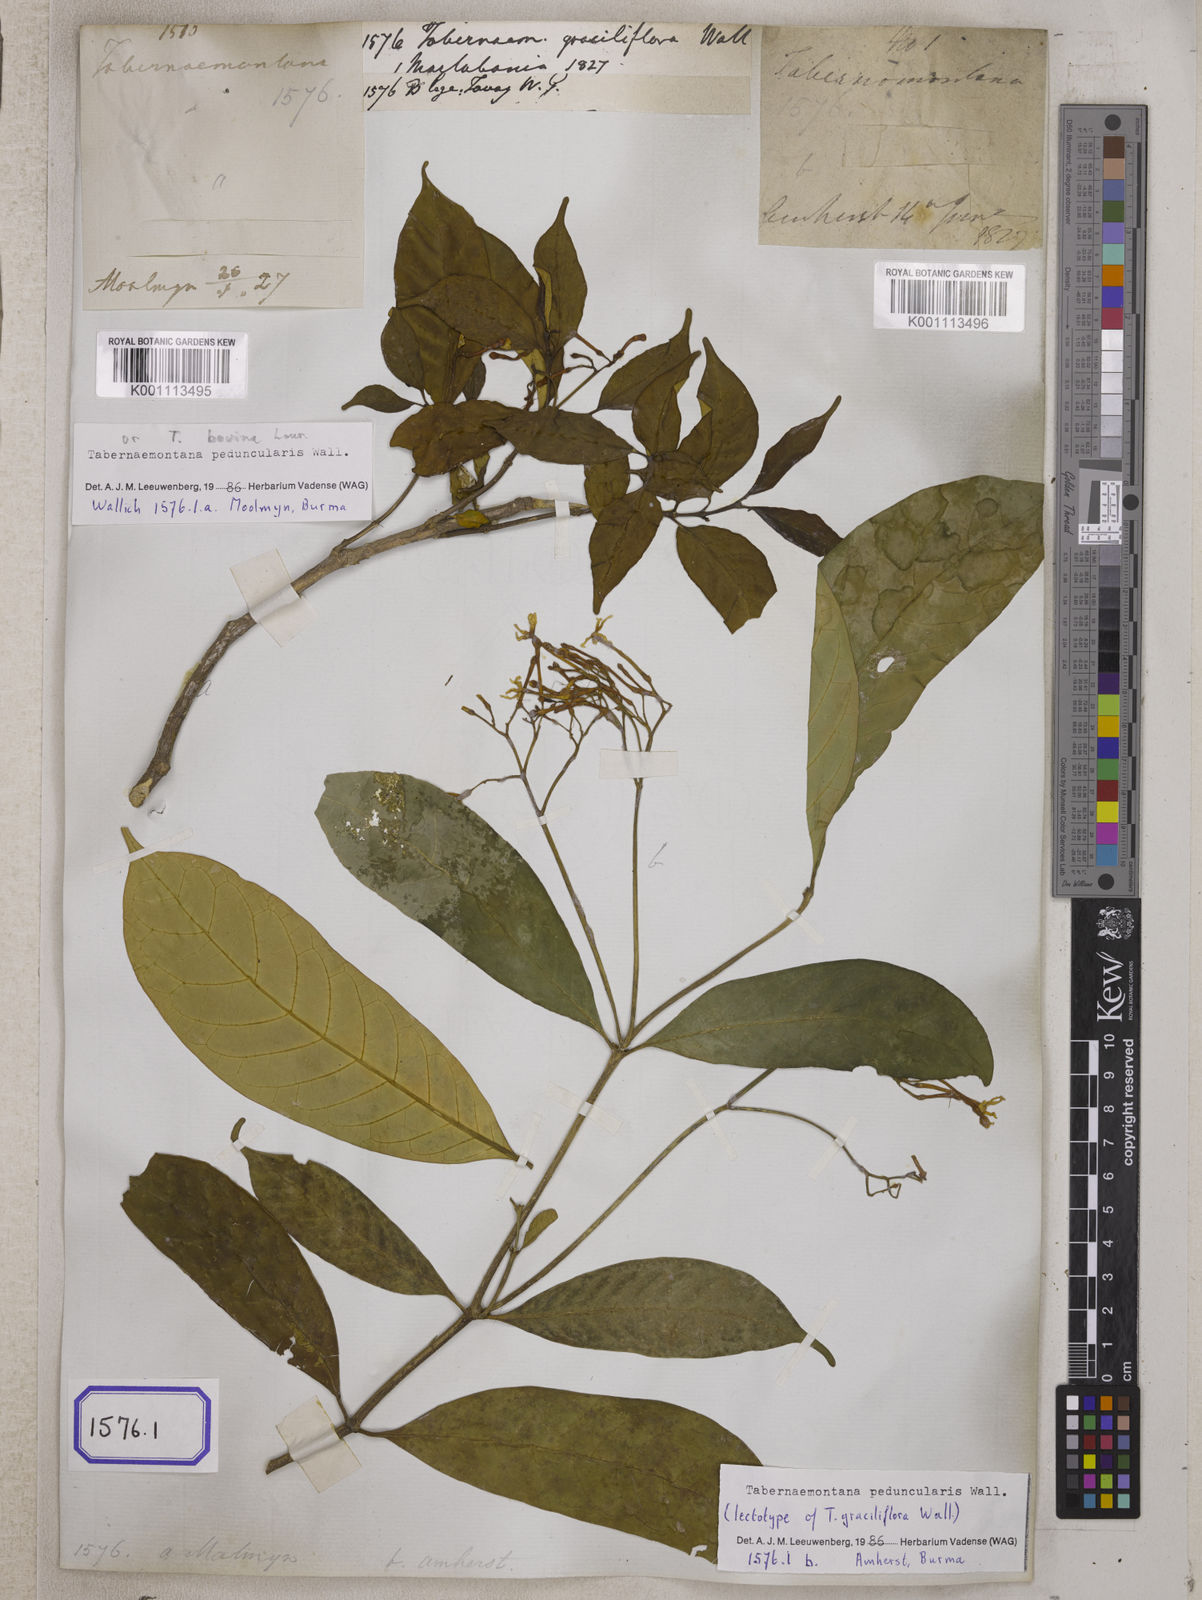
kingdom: Plantae
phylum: Tracheophyta
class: Magnoliopsida
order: Gentianales
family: Apocynaceae
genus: Tabernaemontana
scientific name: Tabernaemontana peduncularis
